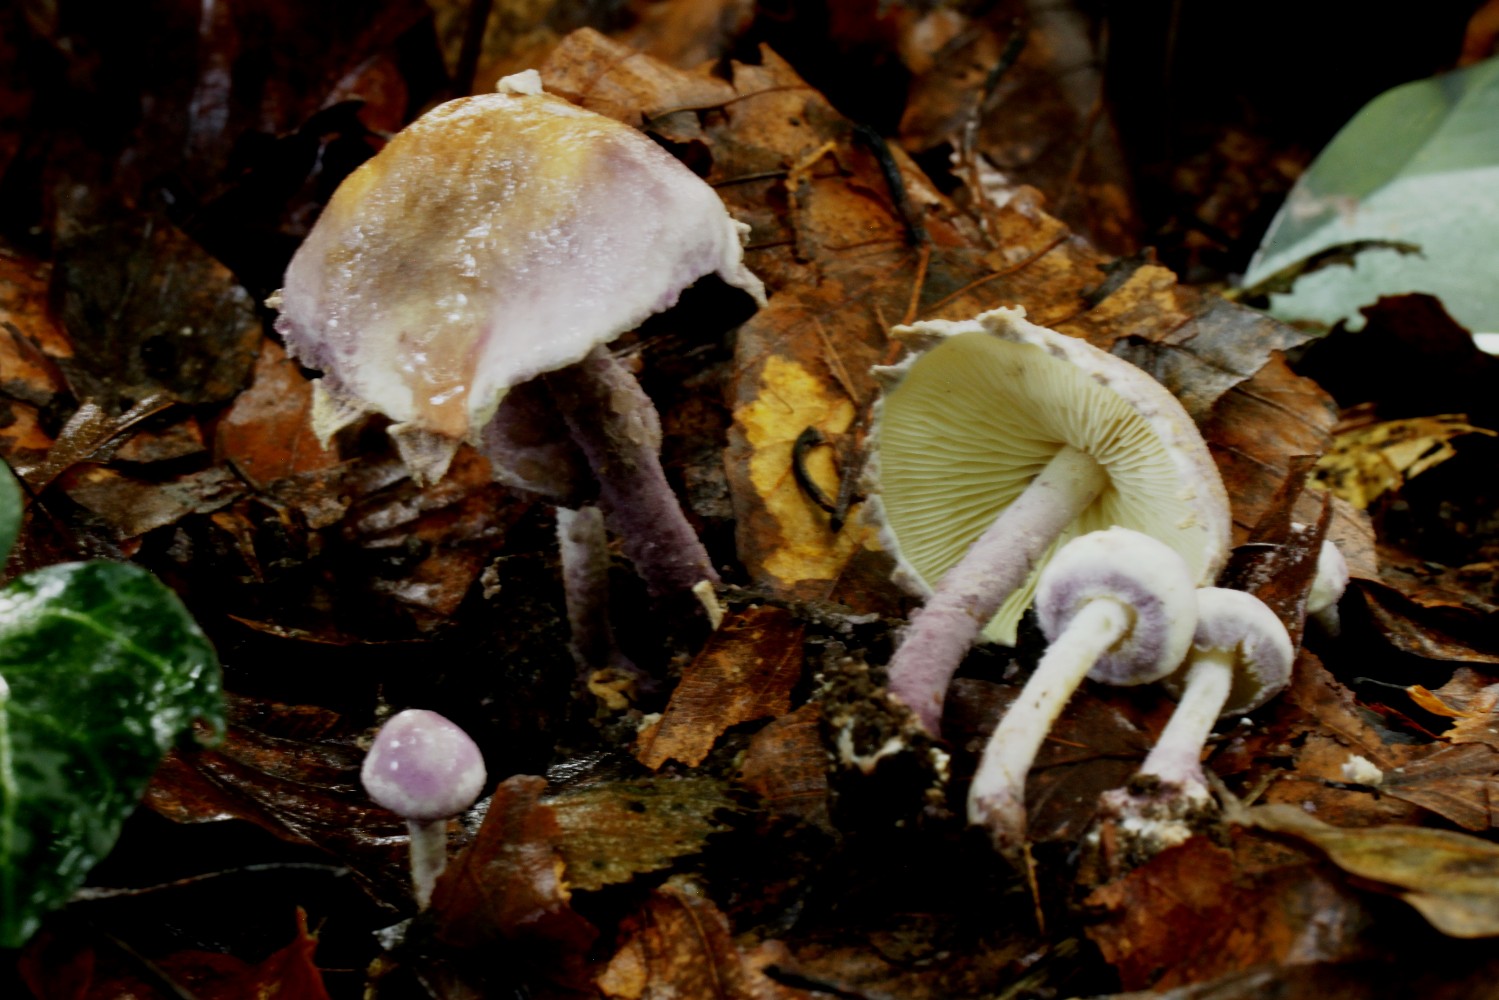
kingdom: Fungi
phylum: Basidiomycota
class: Agaricomycetes
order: Agaricales
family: Agaricaceae
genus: Cystolepiota
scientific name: Cystolepiota bucknallii
